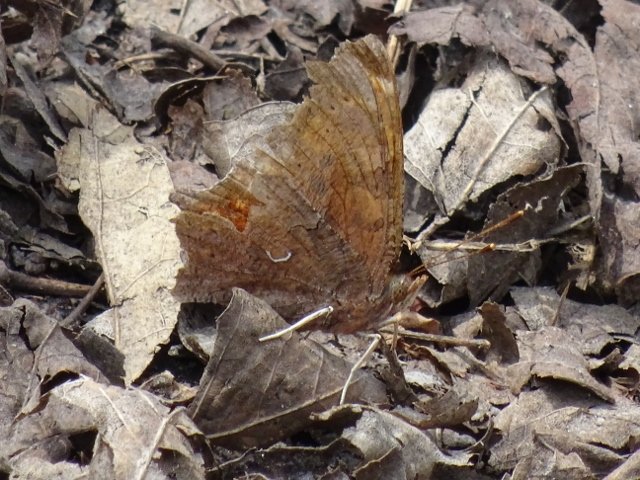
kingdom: Animalia
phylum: Arthropoda
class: Insecta
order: Lepidoptera
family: Nymphalidae
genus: Polygonia
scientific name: Polygonia comma
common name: Eastern Comma
